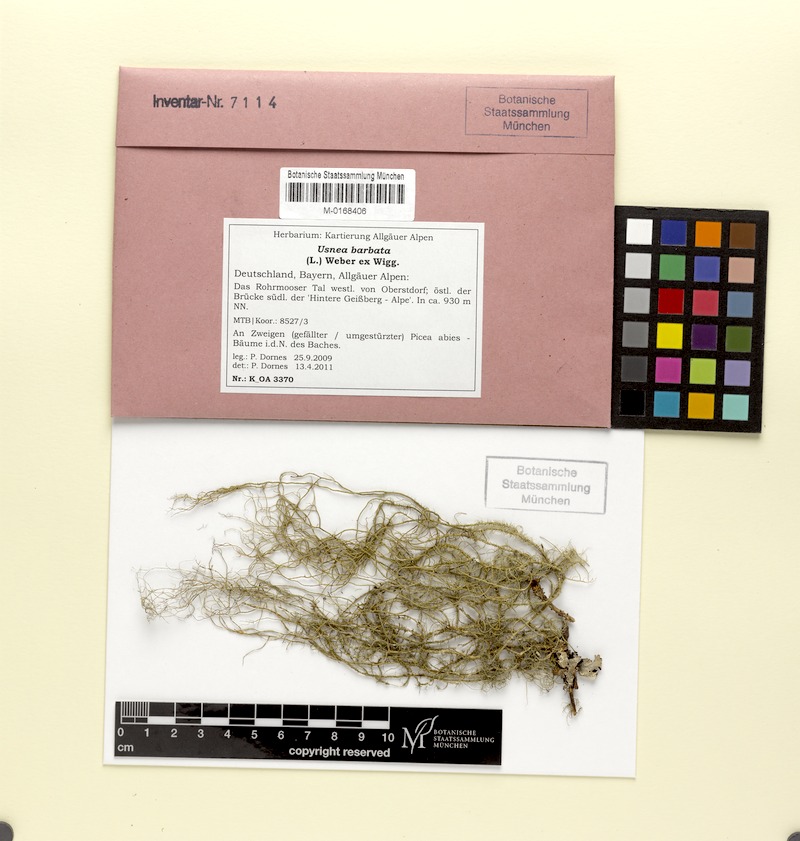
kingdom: Fungi
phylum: Ascomycota
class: Lecanoromycetes
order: Lecanorales
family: Parmeliaceae
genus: Usnea
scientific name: Usnea barbata
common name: Old man's beard lichen
